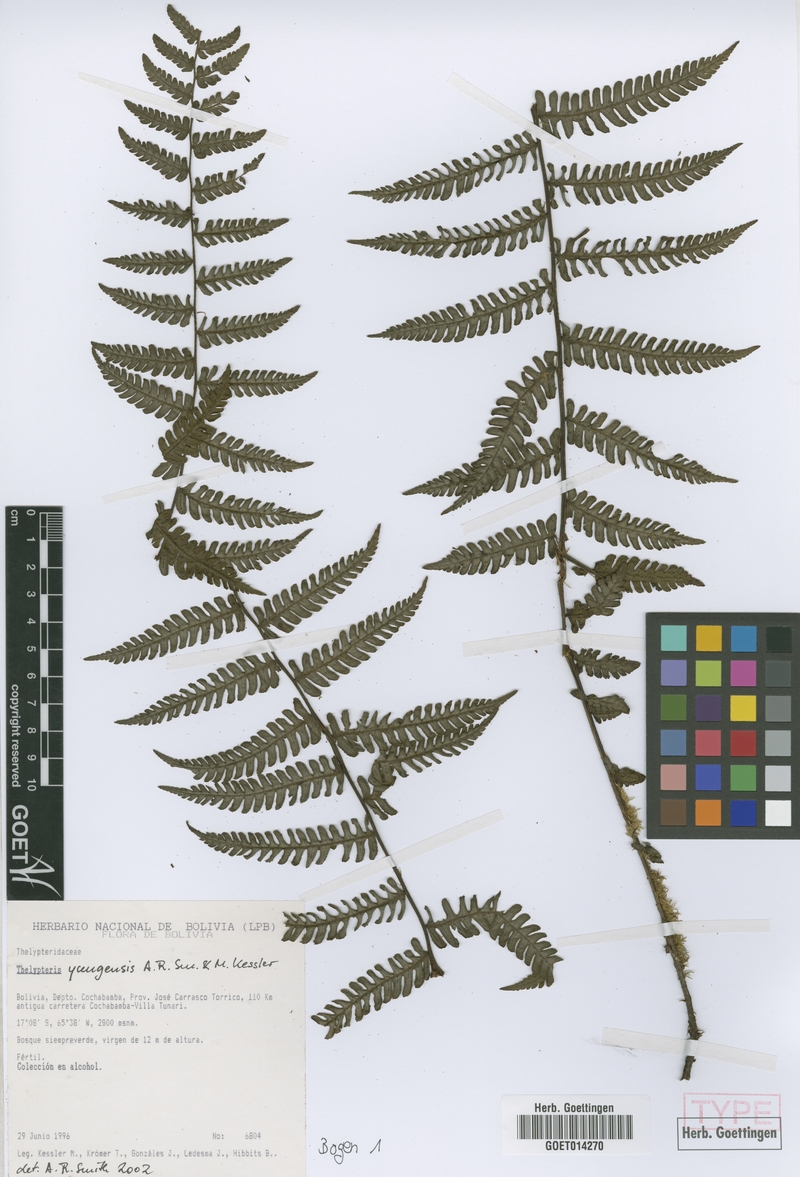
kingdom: Plantae
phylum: Tracheophyta
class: Polypodiopsida
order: Polypodiales
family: Thelypteridaceae
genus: Amauropelta
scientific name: Amauropelta yungensis
